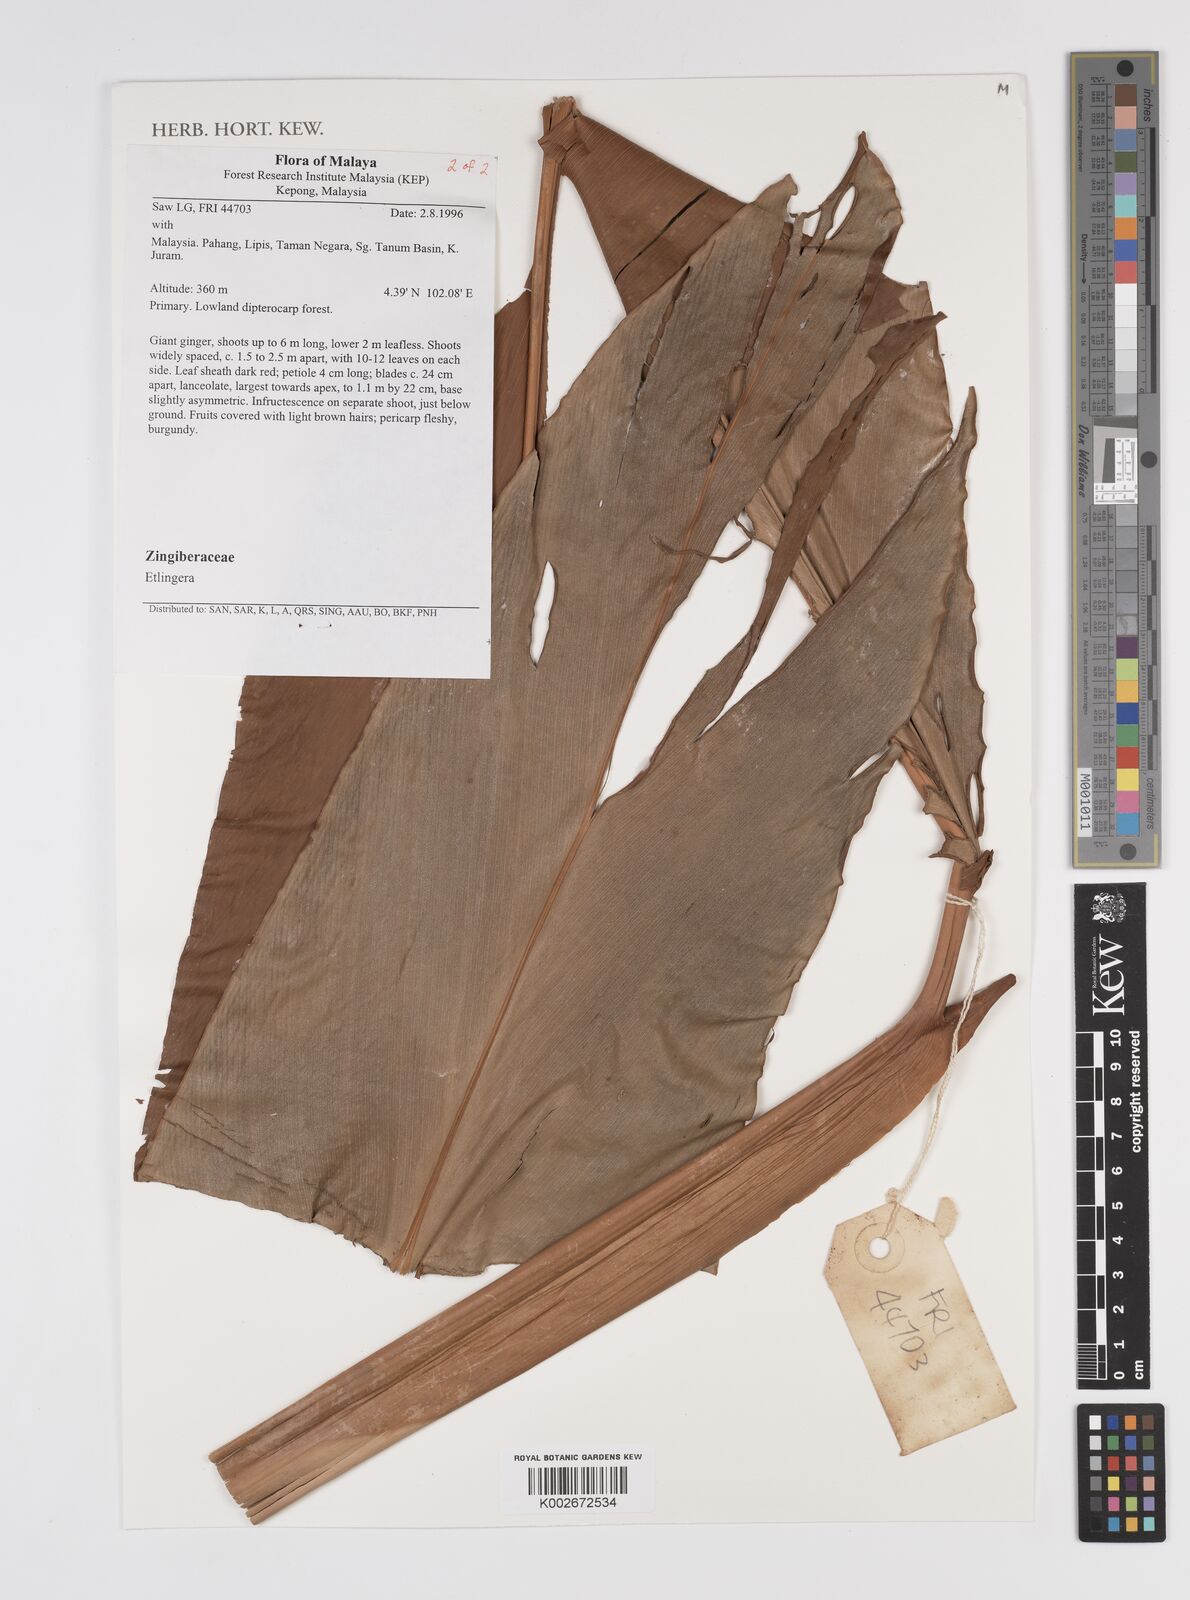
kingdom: Plantae
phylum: Tracheophyta
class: Liliopsida
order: Zingiberales
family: Zingiberaceae
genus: Etlingera
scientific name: Etlingera
